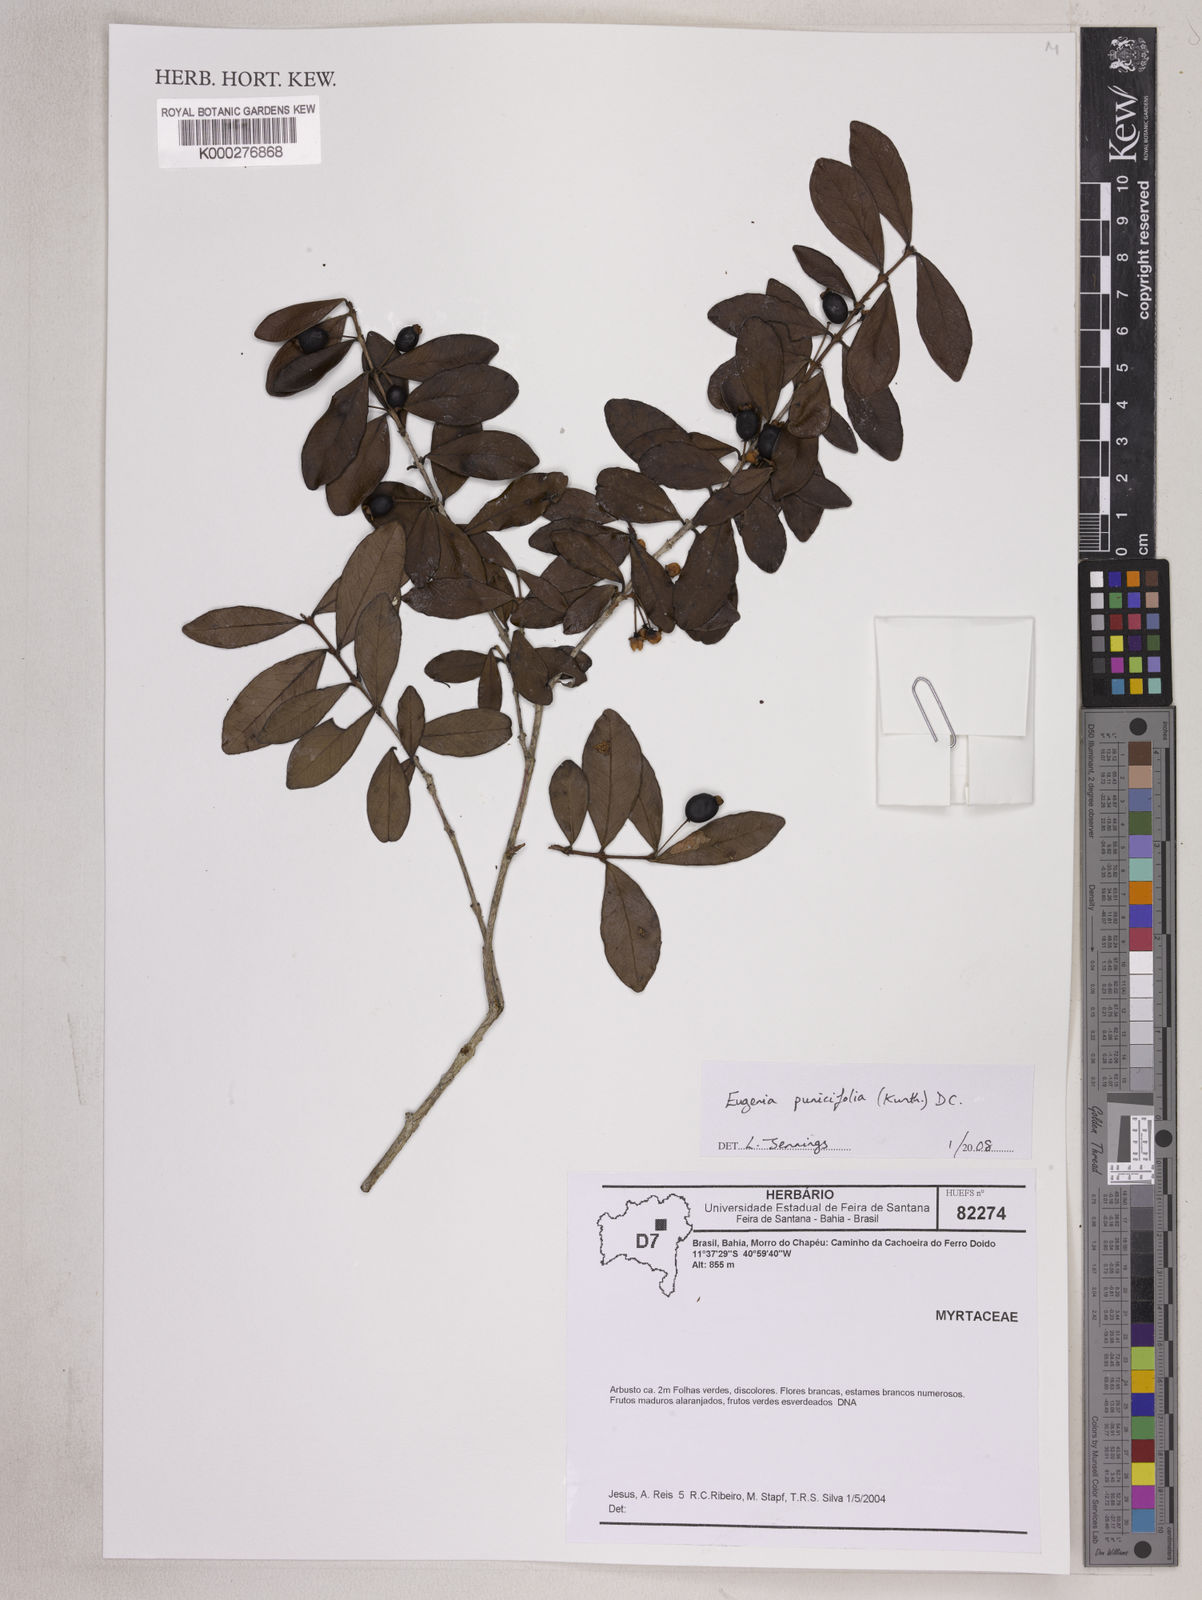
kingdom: Plantae
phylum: Tracheophyta
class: Magnoliopsida
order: Myrtales
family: Myrtaceae
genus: Eugenia
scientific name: Eugenia punicifolia
